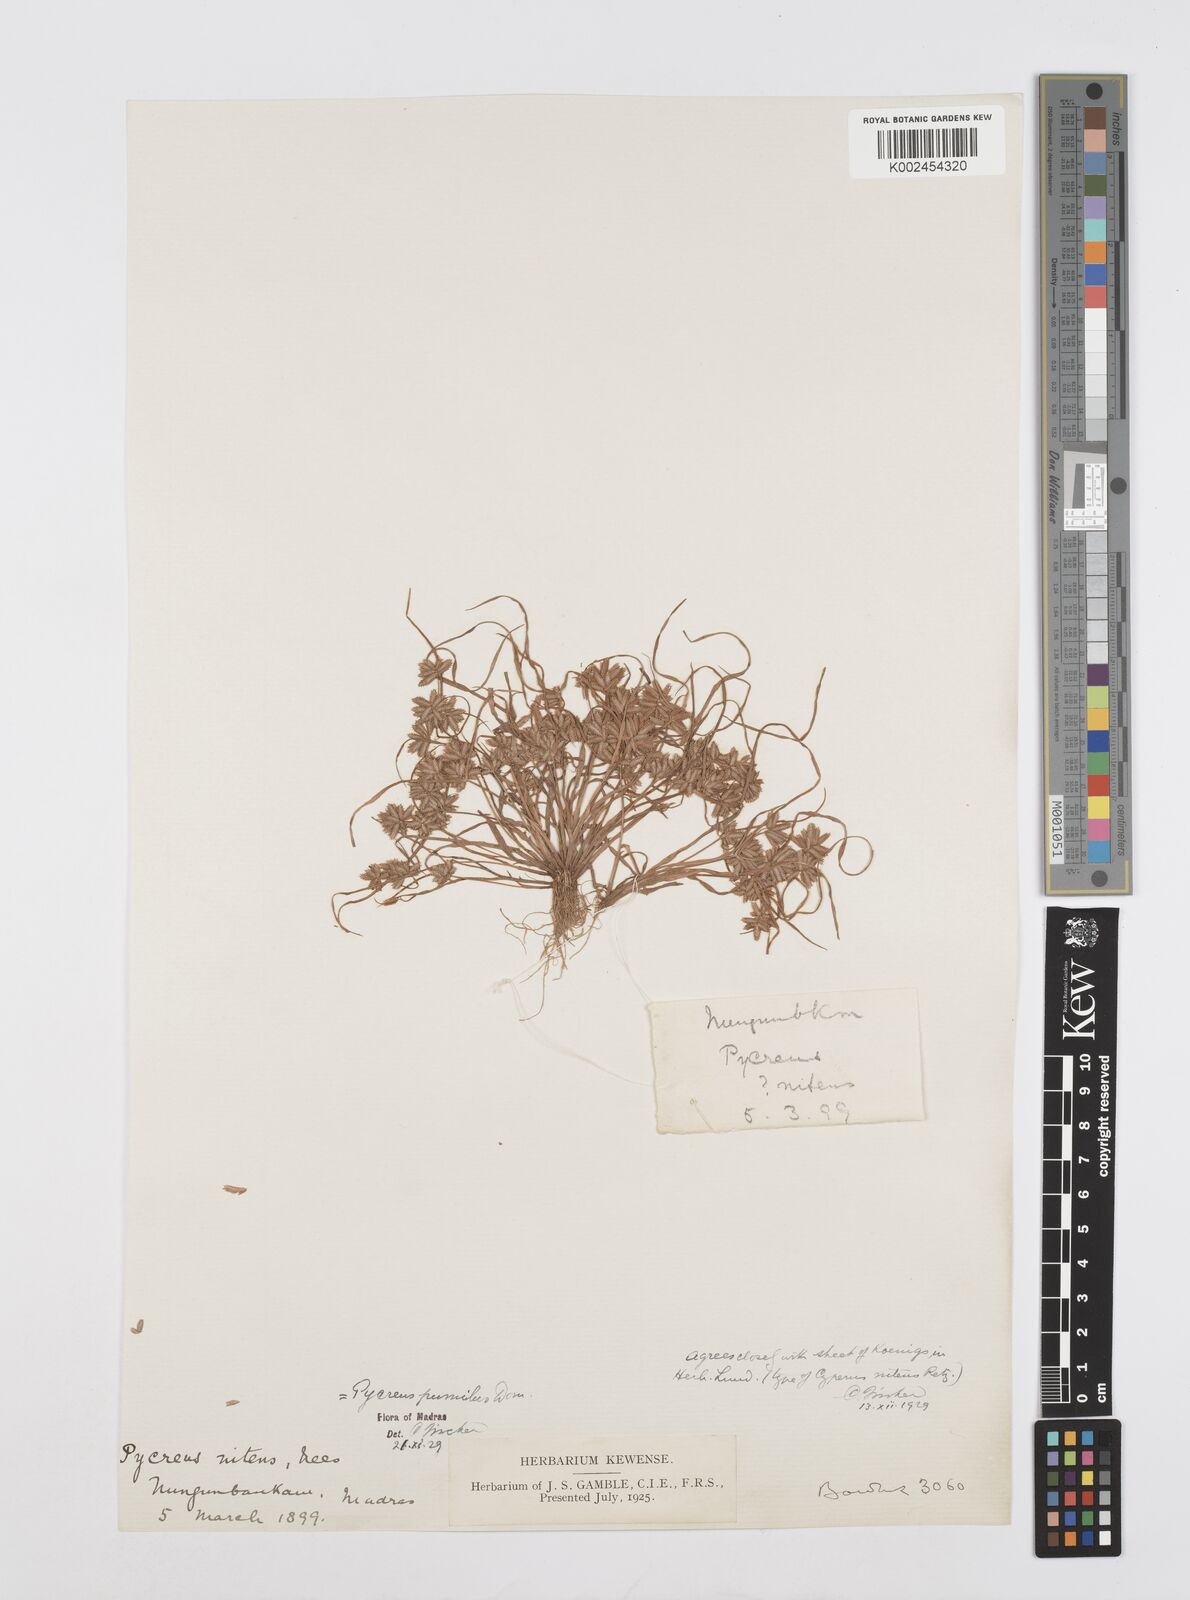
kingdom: Plantae
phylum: Tracheophyta
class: Liliopsida
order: Poales
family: Cyperaceae
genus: Cyperus
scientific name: Cyperus pumilus
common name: Low flatsedge
